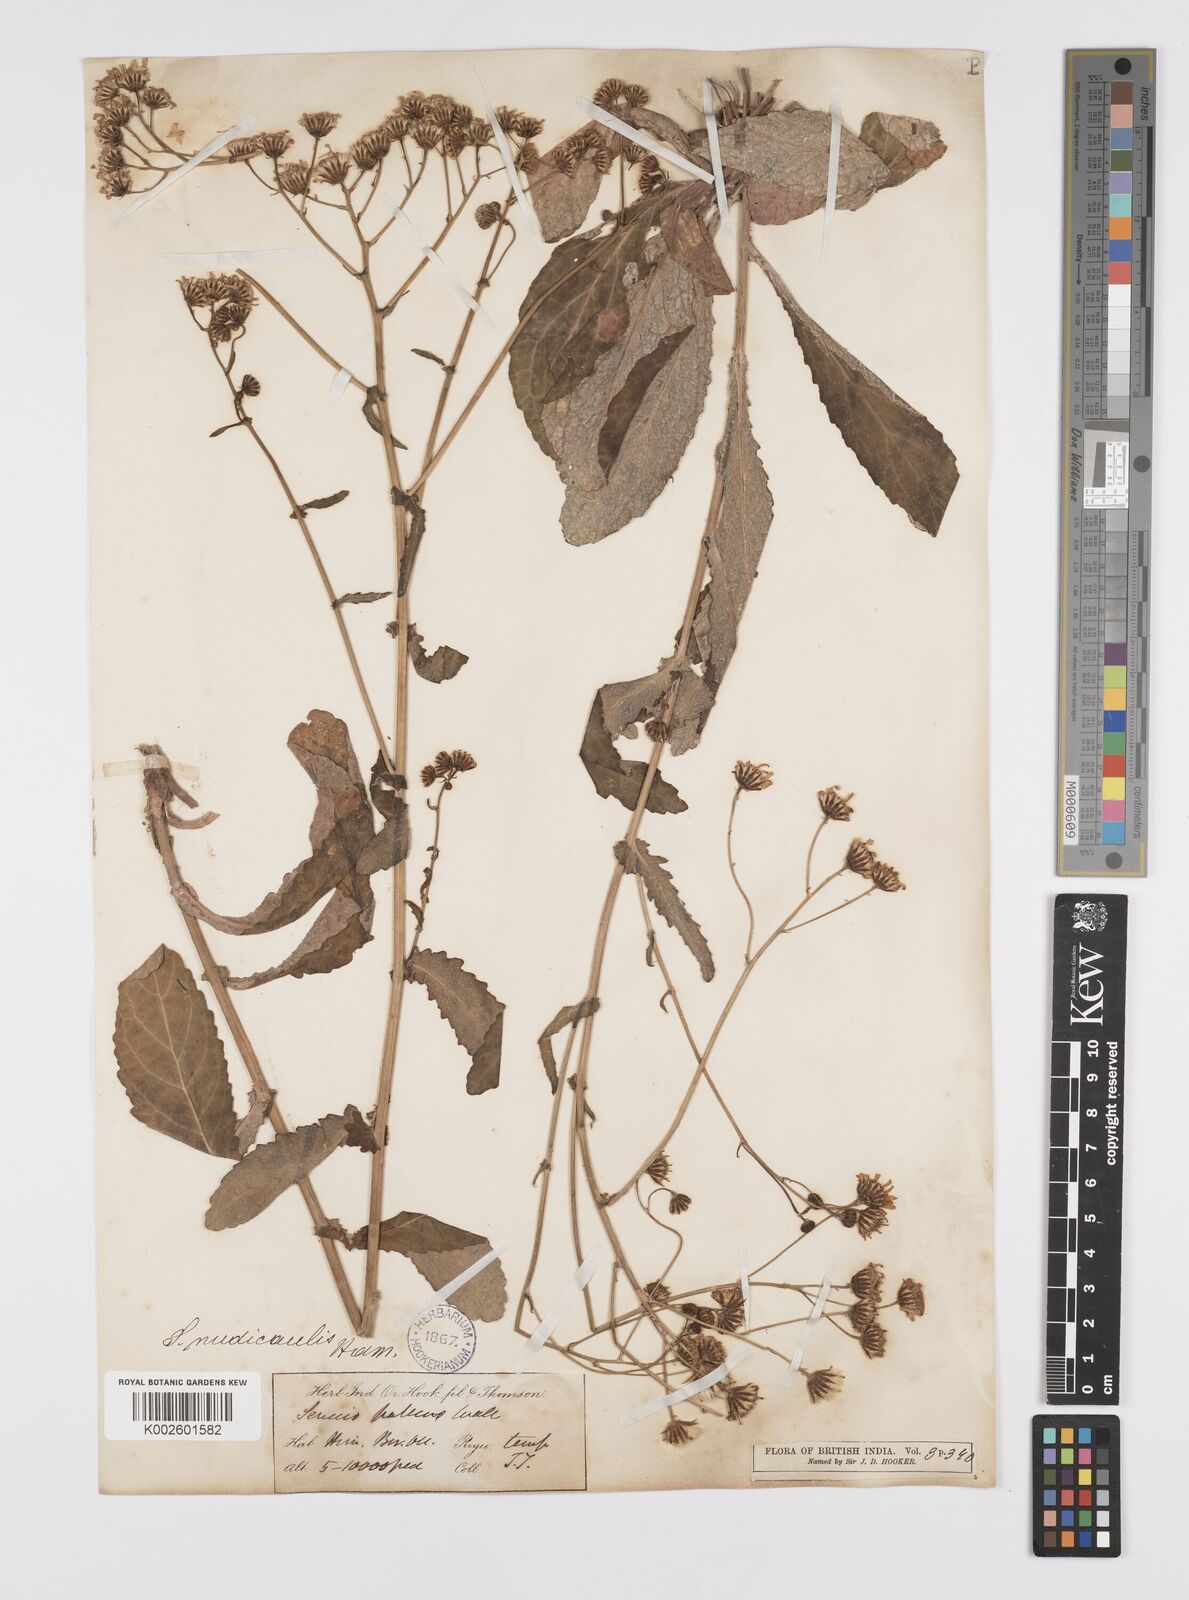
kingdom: Plantae
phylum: Tracheophyta
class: Magnoliopsida
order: Asterales
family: Asteraceae
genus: Jacobaea
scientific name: Jacobaea nudicaulis
